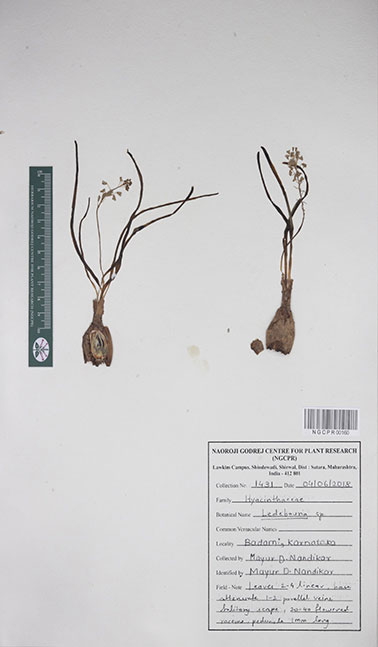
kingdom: Plantae
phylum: Tracheophyta
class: Liliopsida
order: Asparagales
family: Asparagaceae
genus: Ledebouria
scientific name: Ledebouria
